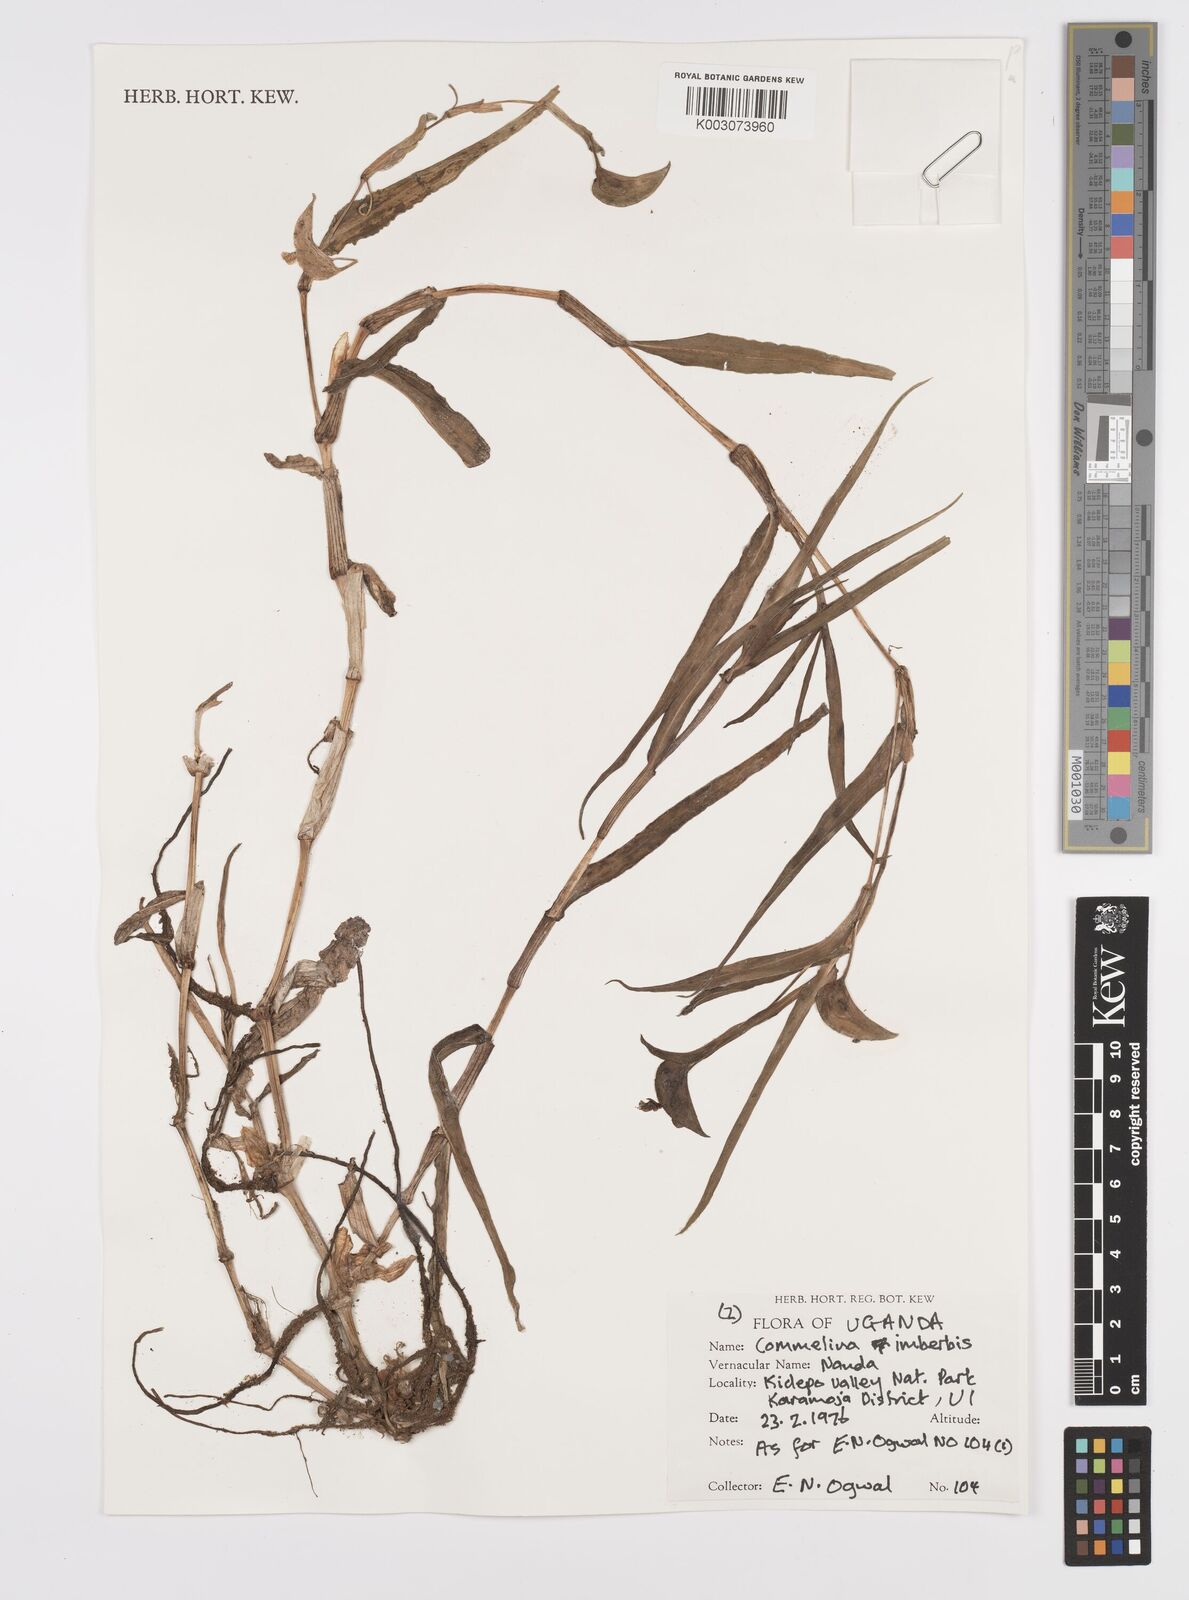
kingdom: Plantae
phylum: Tracheophyta
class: Liliopsida
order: Commelinales
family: Commelinaceae
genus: Commelina
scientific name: Commelina imberbis
